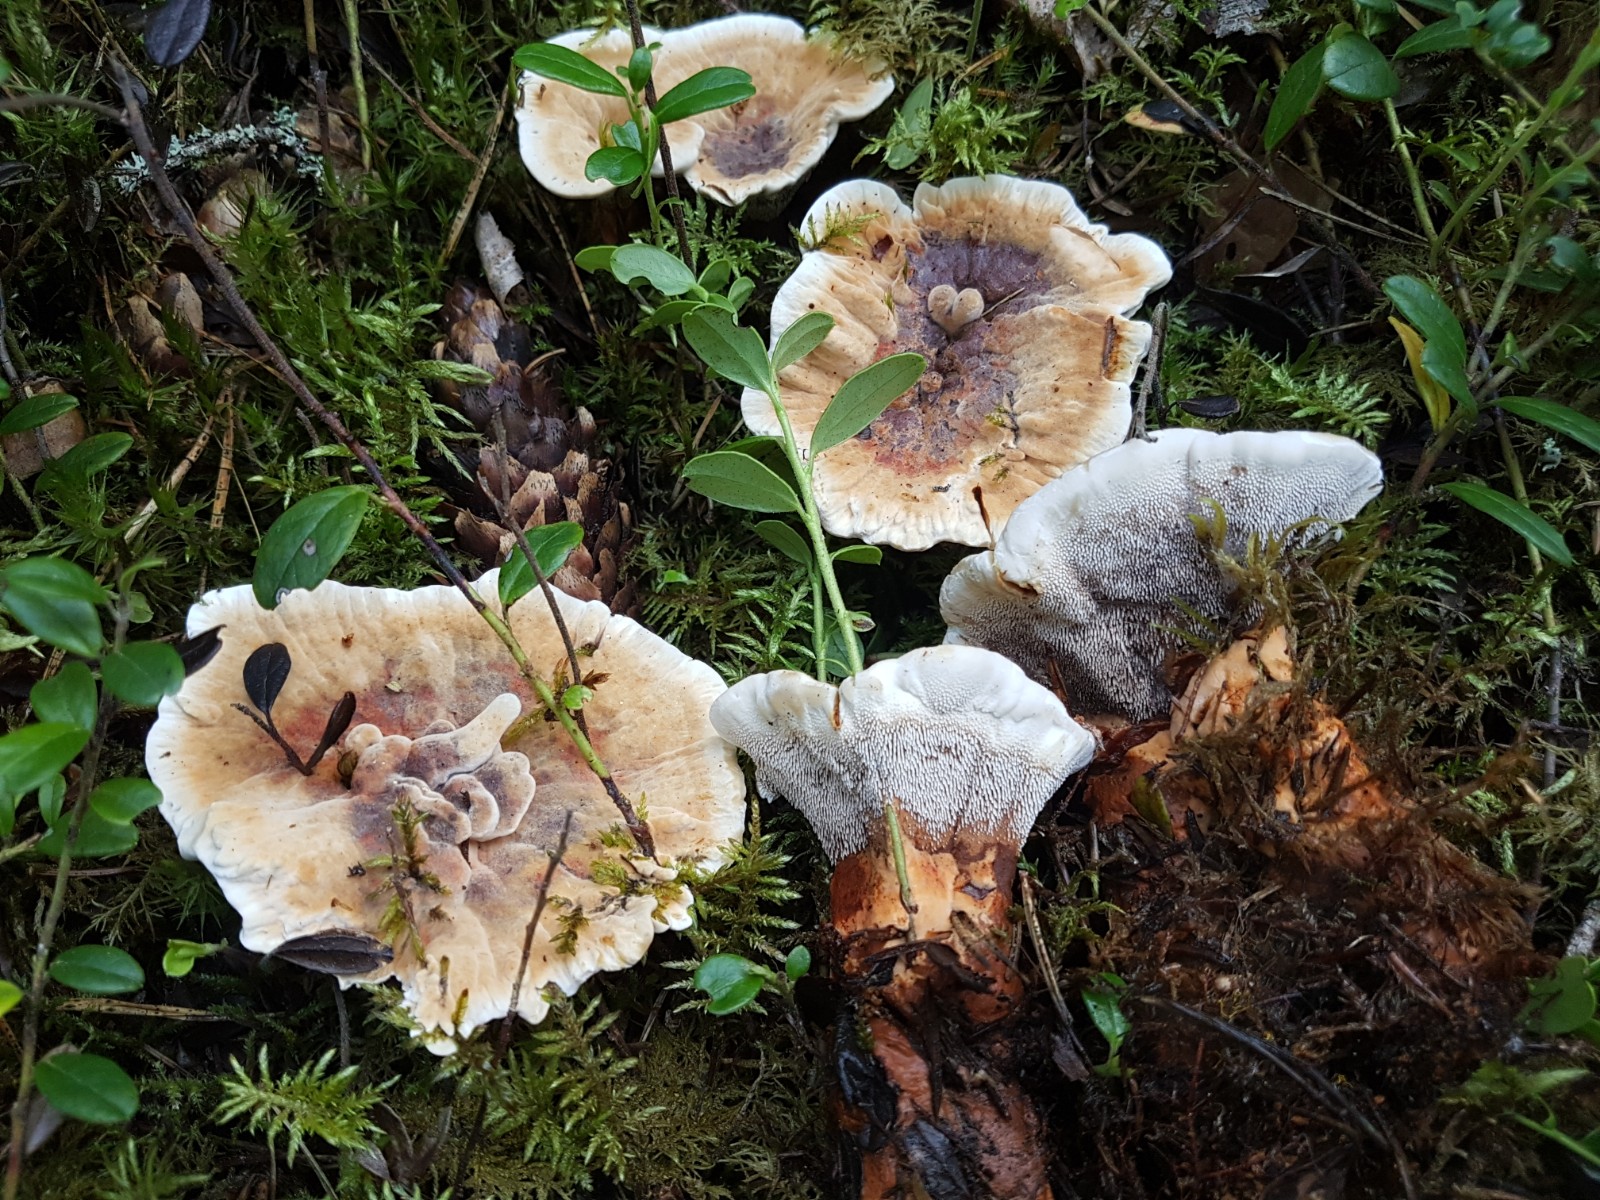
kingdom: Fungi
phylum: Basidiomycota
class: Agaricomycetes
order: Thelephorales
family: Bankeraceae
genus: Hydnellum
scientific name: Hydnellum aurantiacum
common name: orange korkpigsvamp
